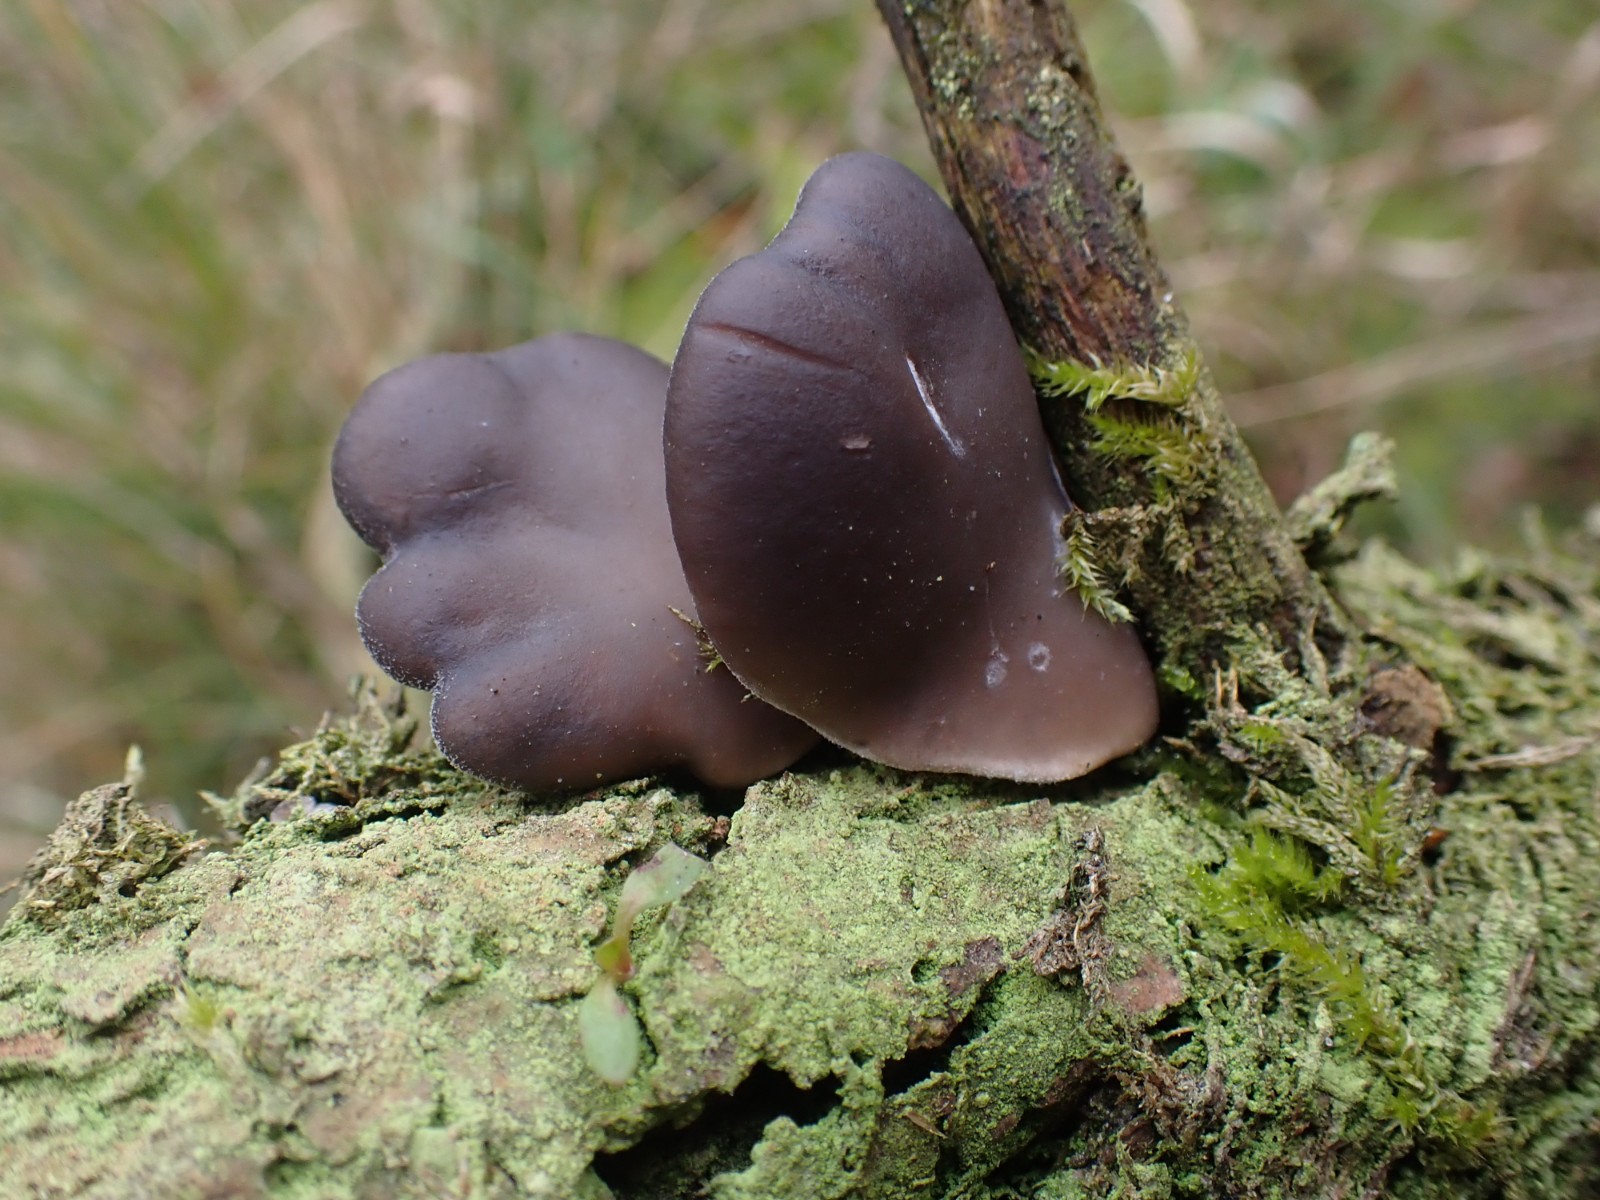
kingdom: Fungi
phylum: Basidiomycota
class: Agaricomycetes
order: Agaricales
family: Pleurotaceae
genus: Pleurotus
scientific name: Pleurotus ostreatus
